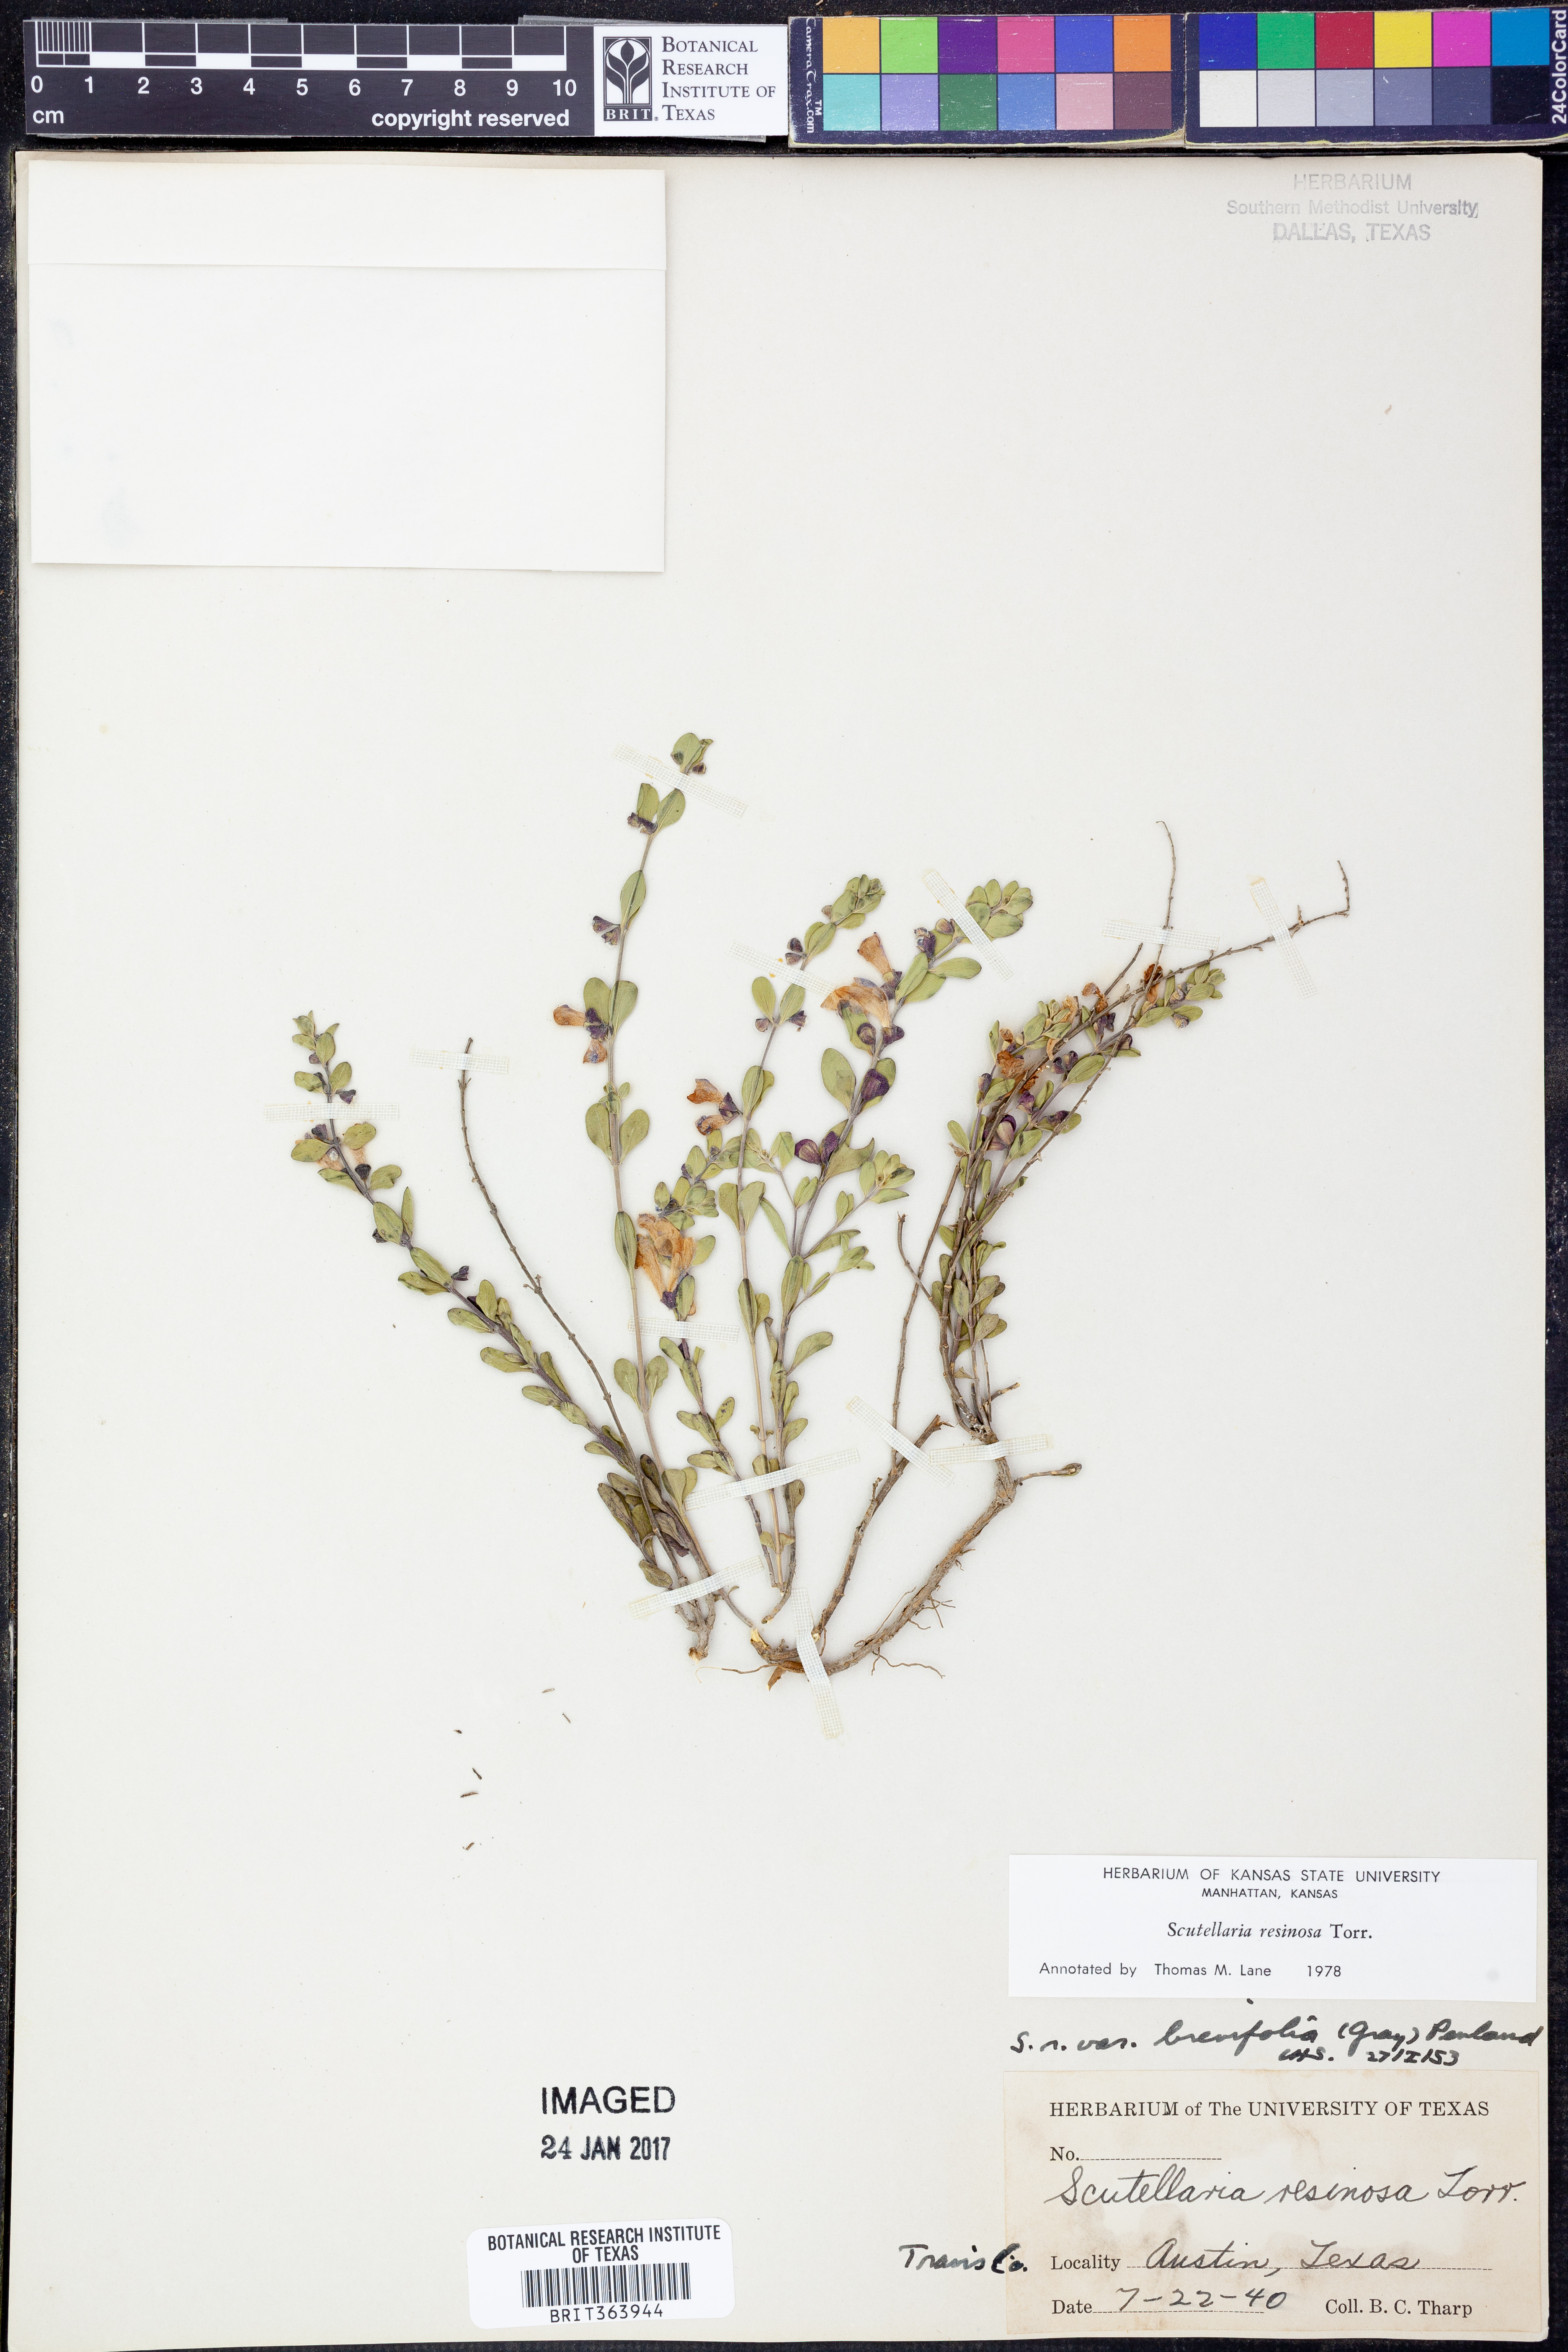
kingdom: Plantae
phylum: Tracheophyta
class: Magnoliopsida
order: Lamiales
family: Lamiaceae
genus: Scutellaria
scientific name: Scutellaria resinosa
